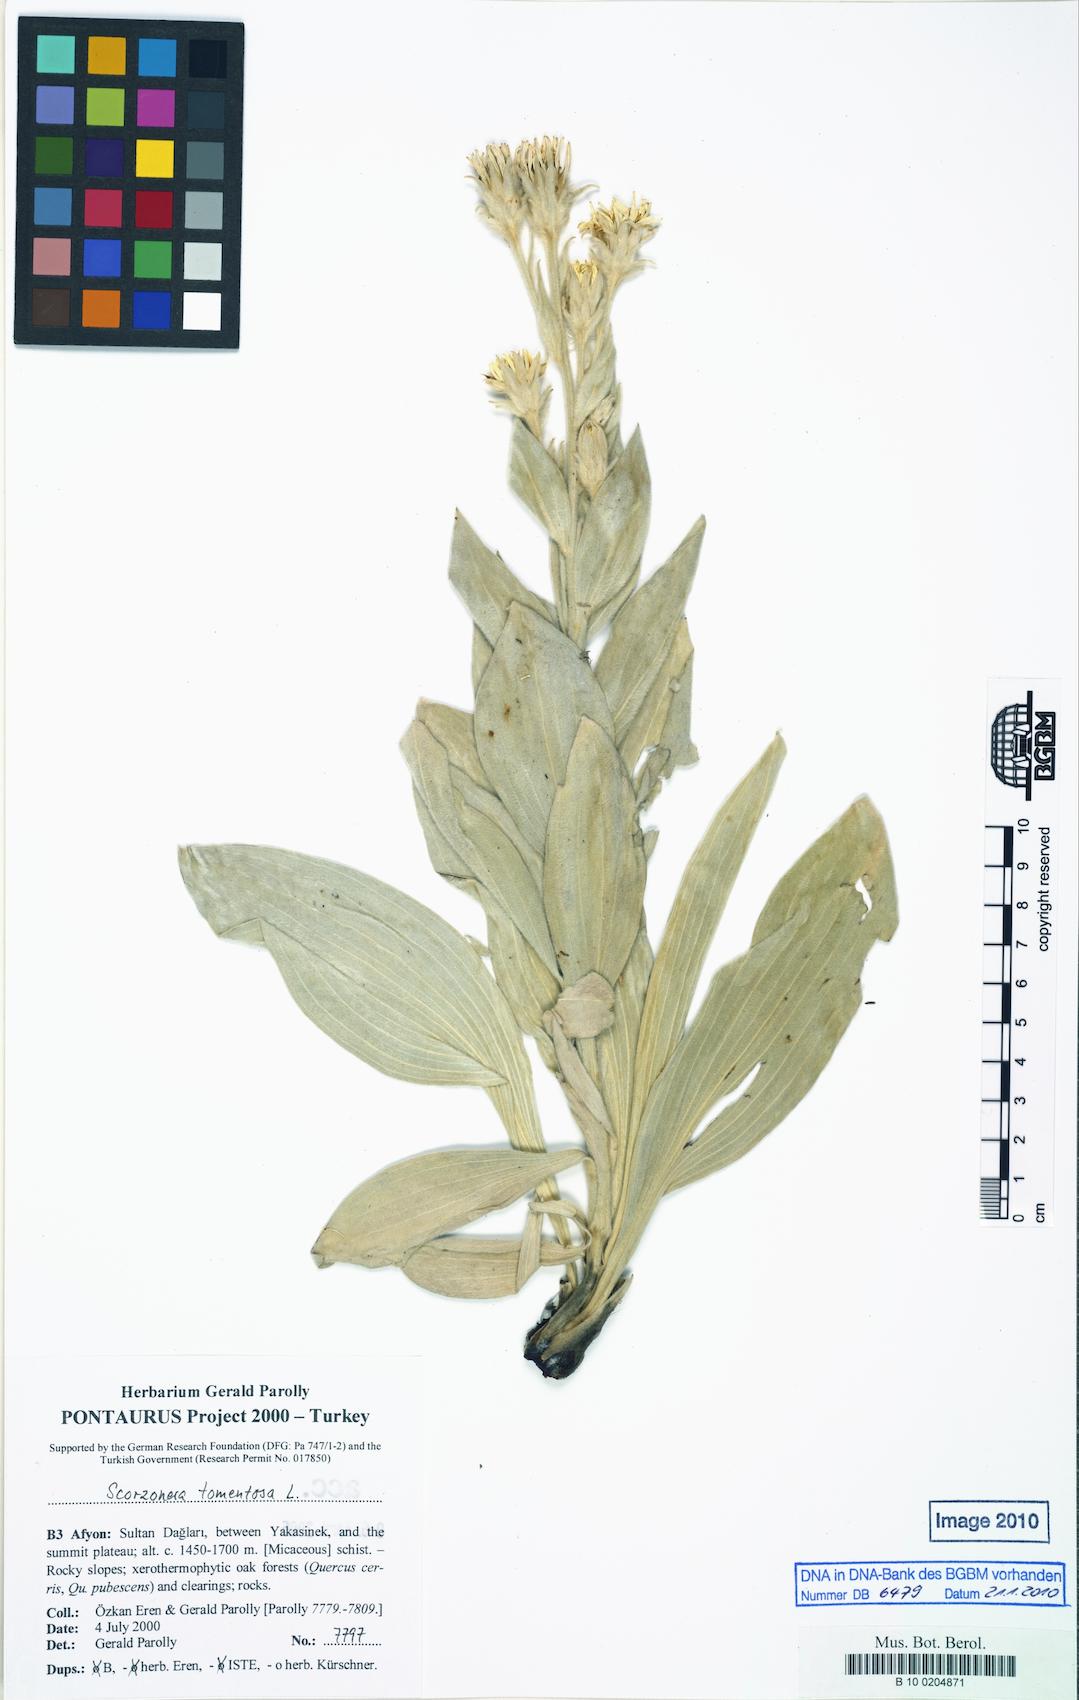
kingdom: Plantae
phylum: Tracheophyta
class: Magnoliopsida
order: Asterales
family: Asteraceae
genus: Guneria
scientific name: Guneria tomentosa
